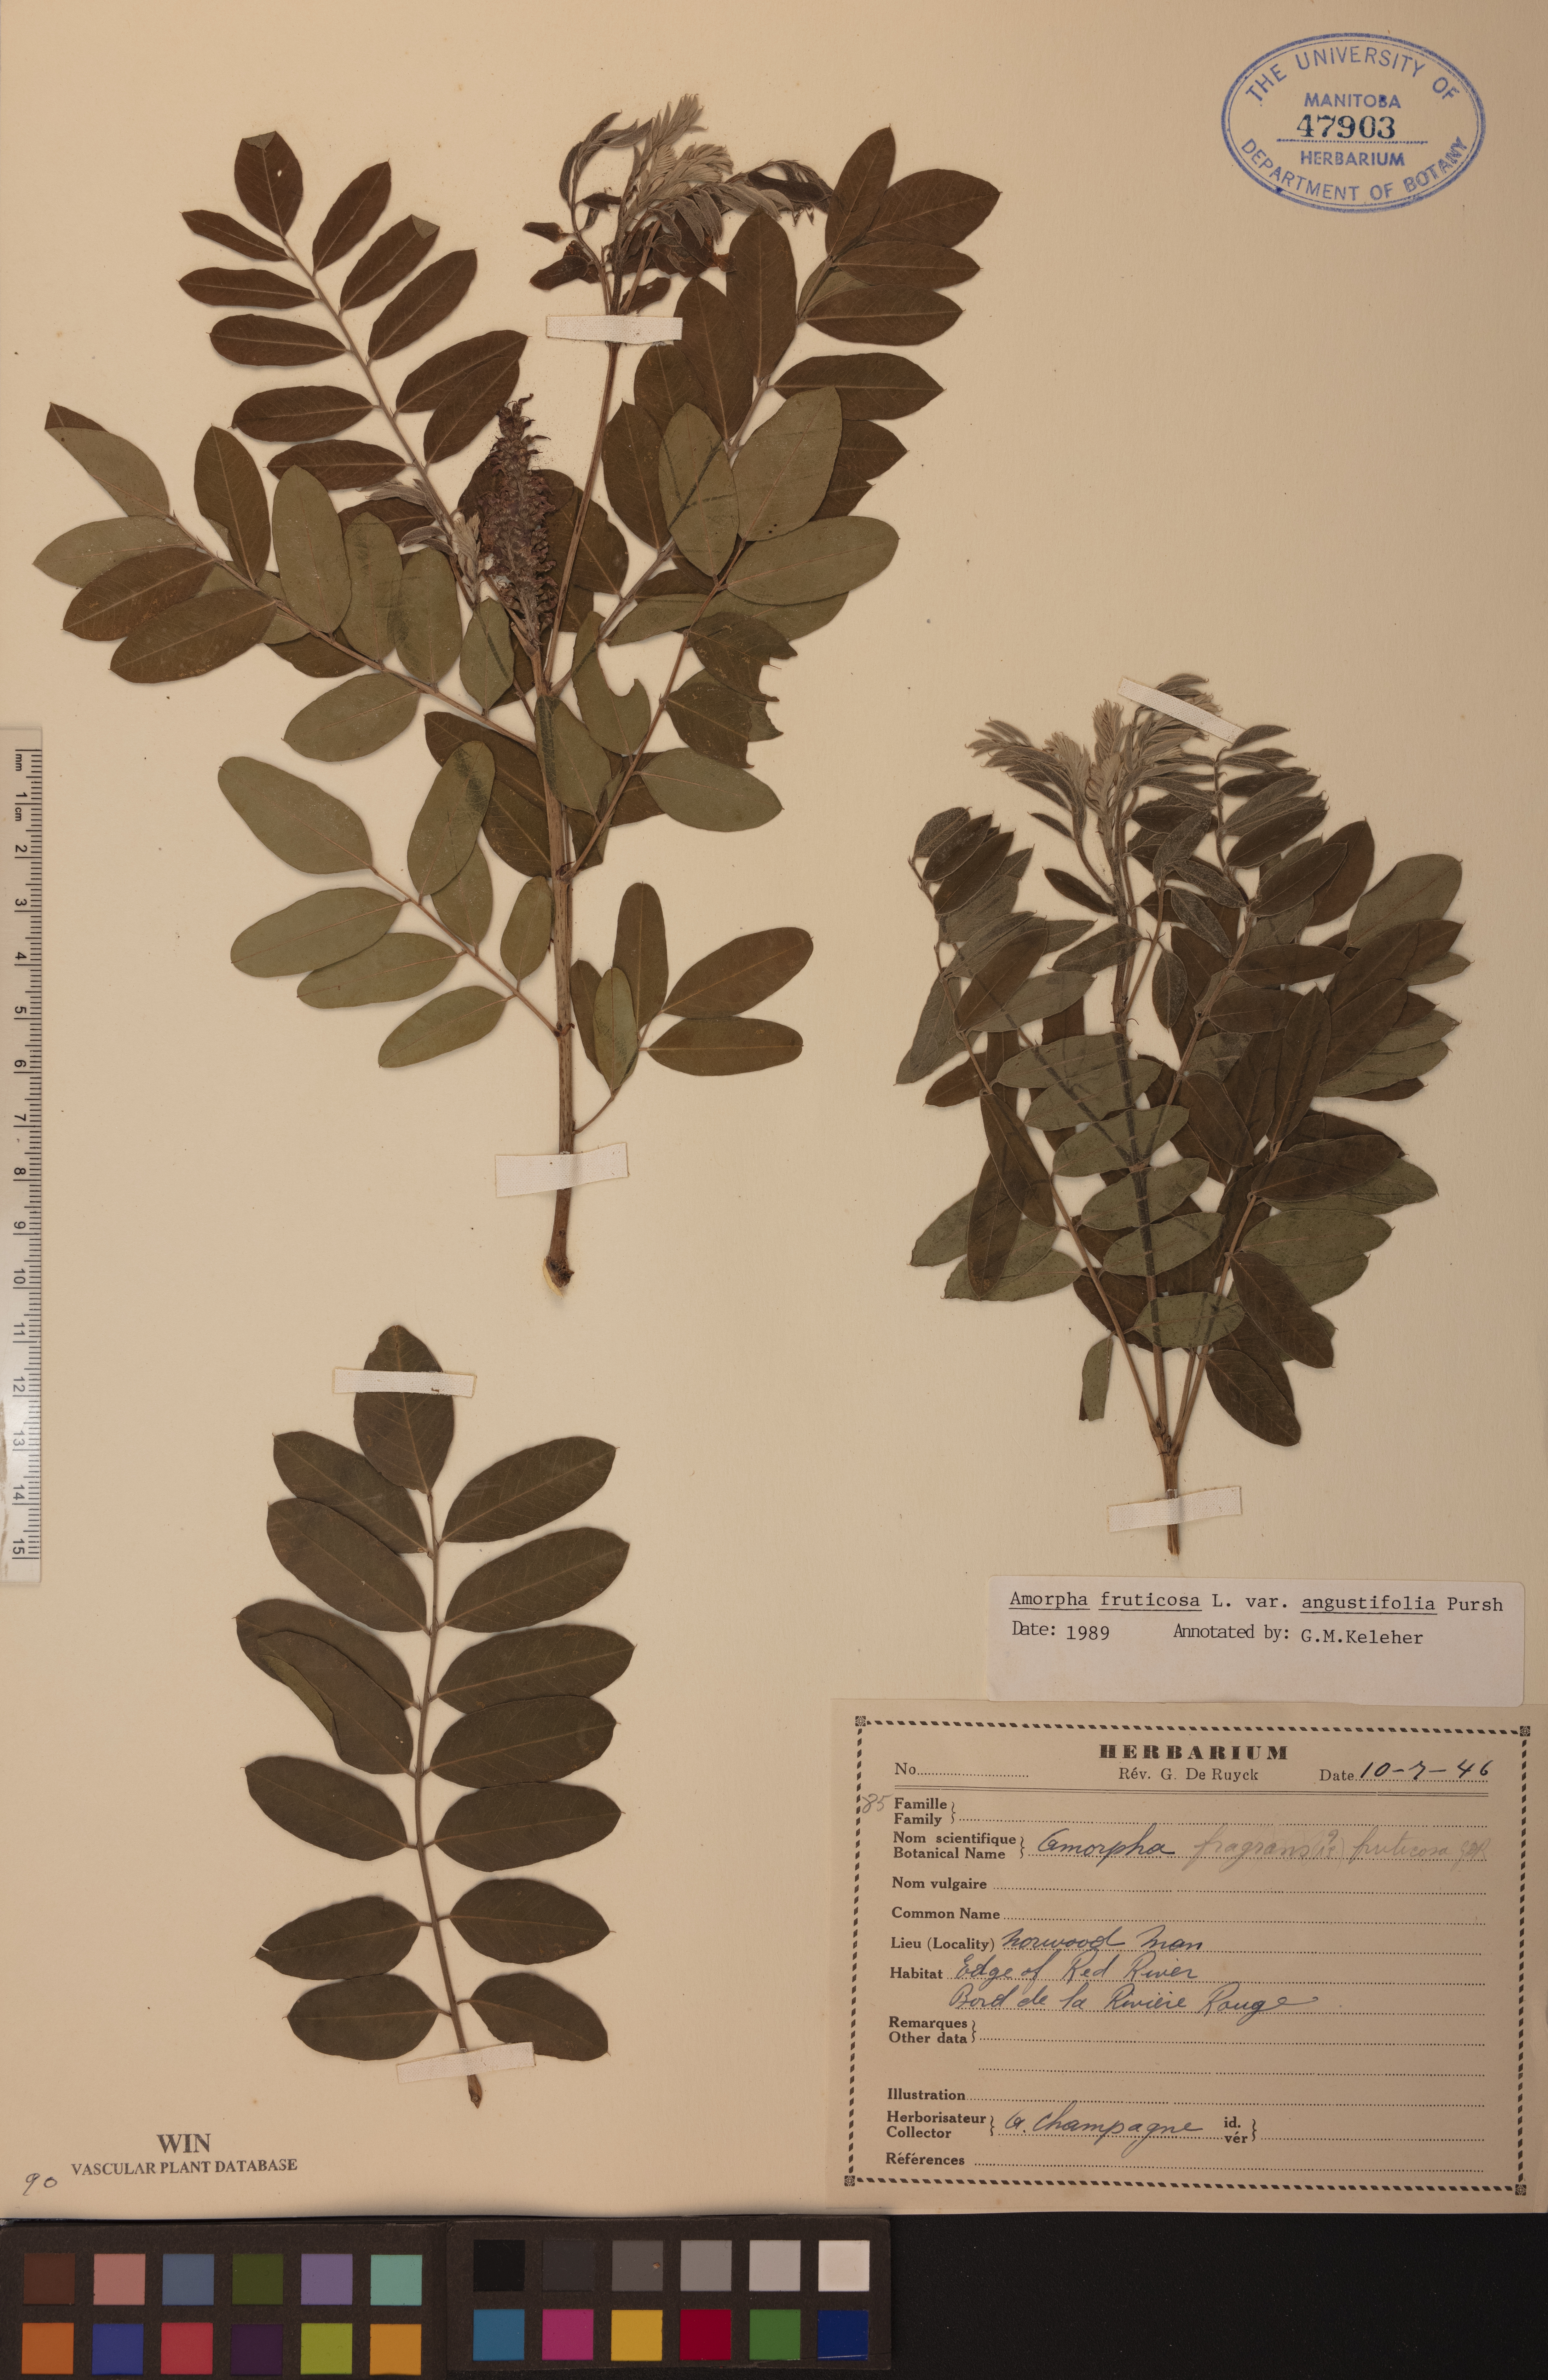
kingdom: Plantae
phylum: Tracheophyta
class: Magnoliopsida
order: Fabales
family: Fabaceae
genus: Amorpha
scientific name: Amorpha fruticosa
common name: False indigo
